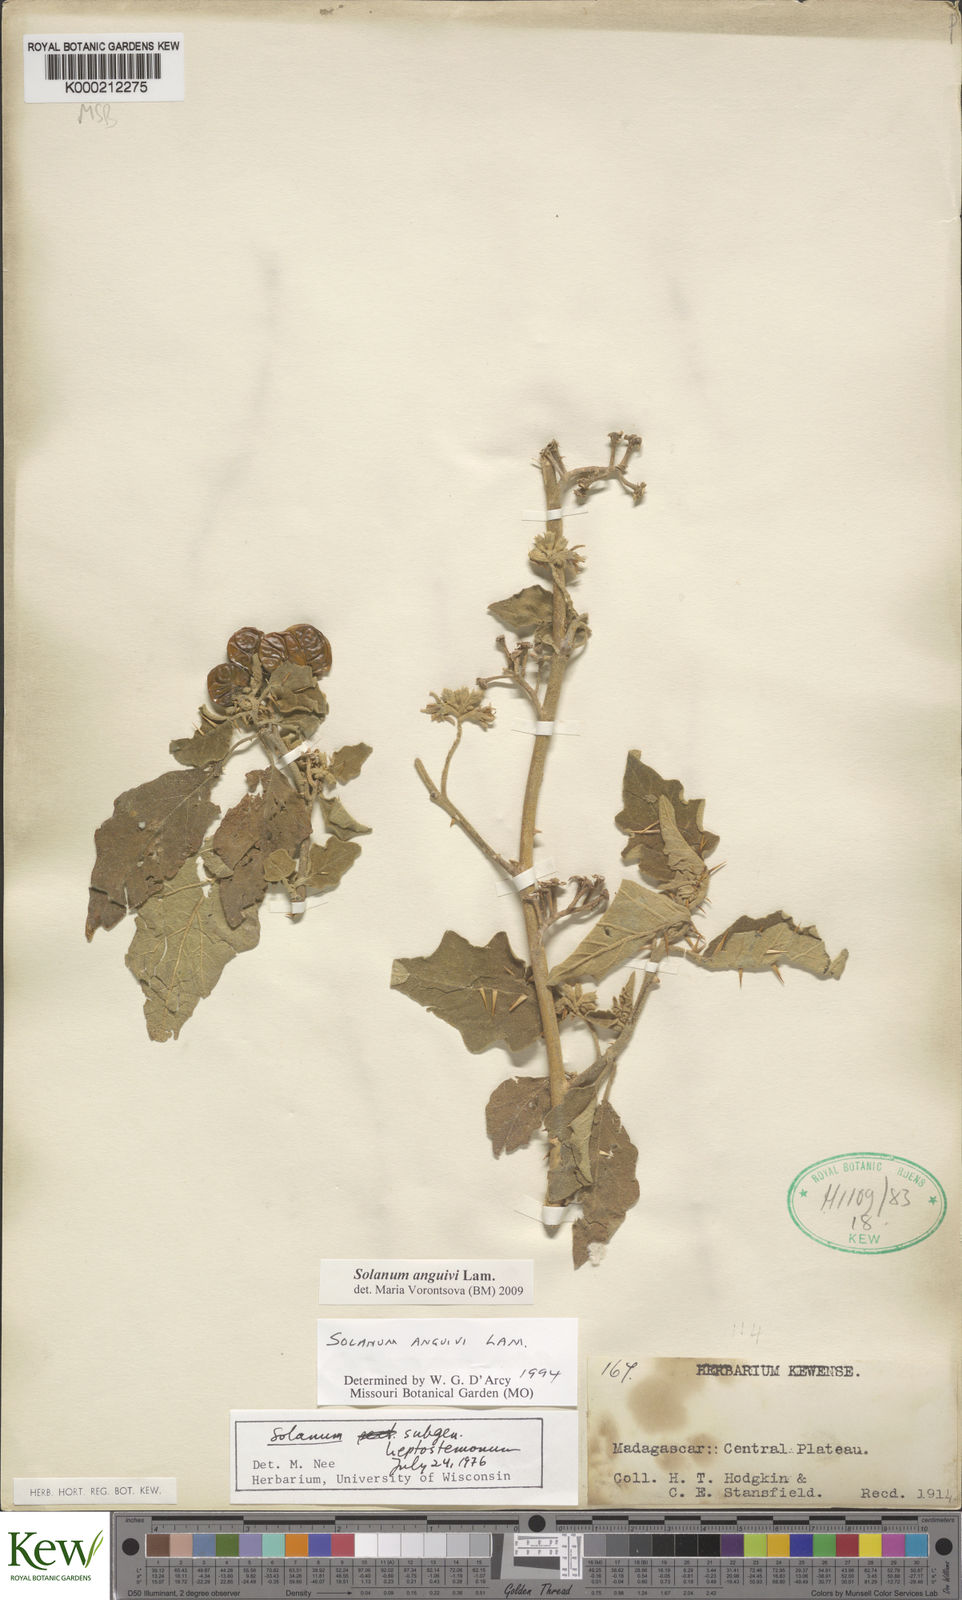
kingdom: Plantae
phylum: Tracheophyta
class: Magnoliopsida
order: Solanales
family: Solanaceae
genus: Solanum
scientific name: Solanum anguivi
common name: Forest bitterberry
